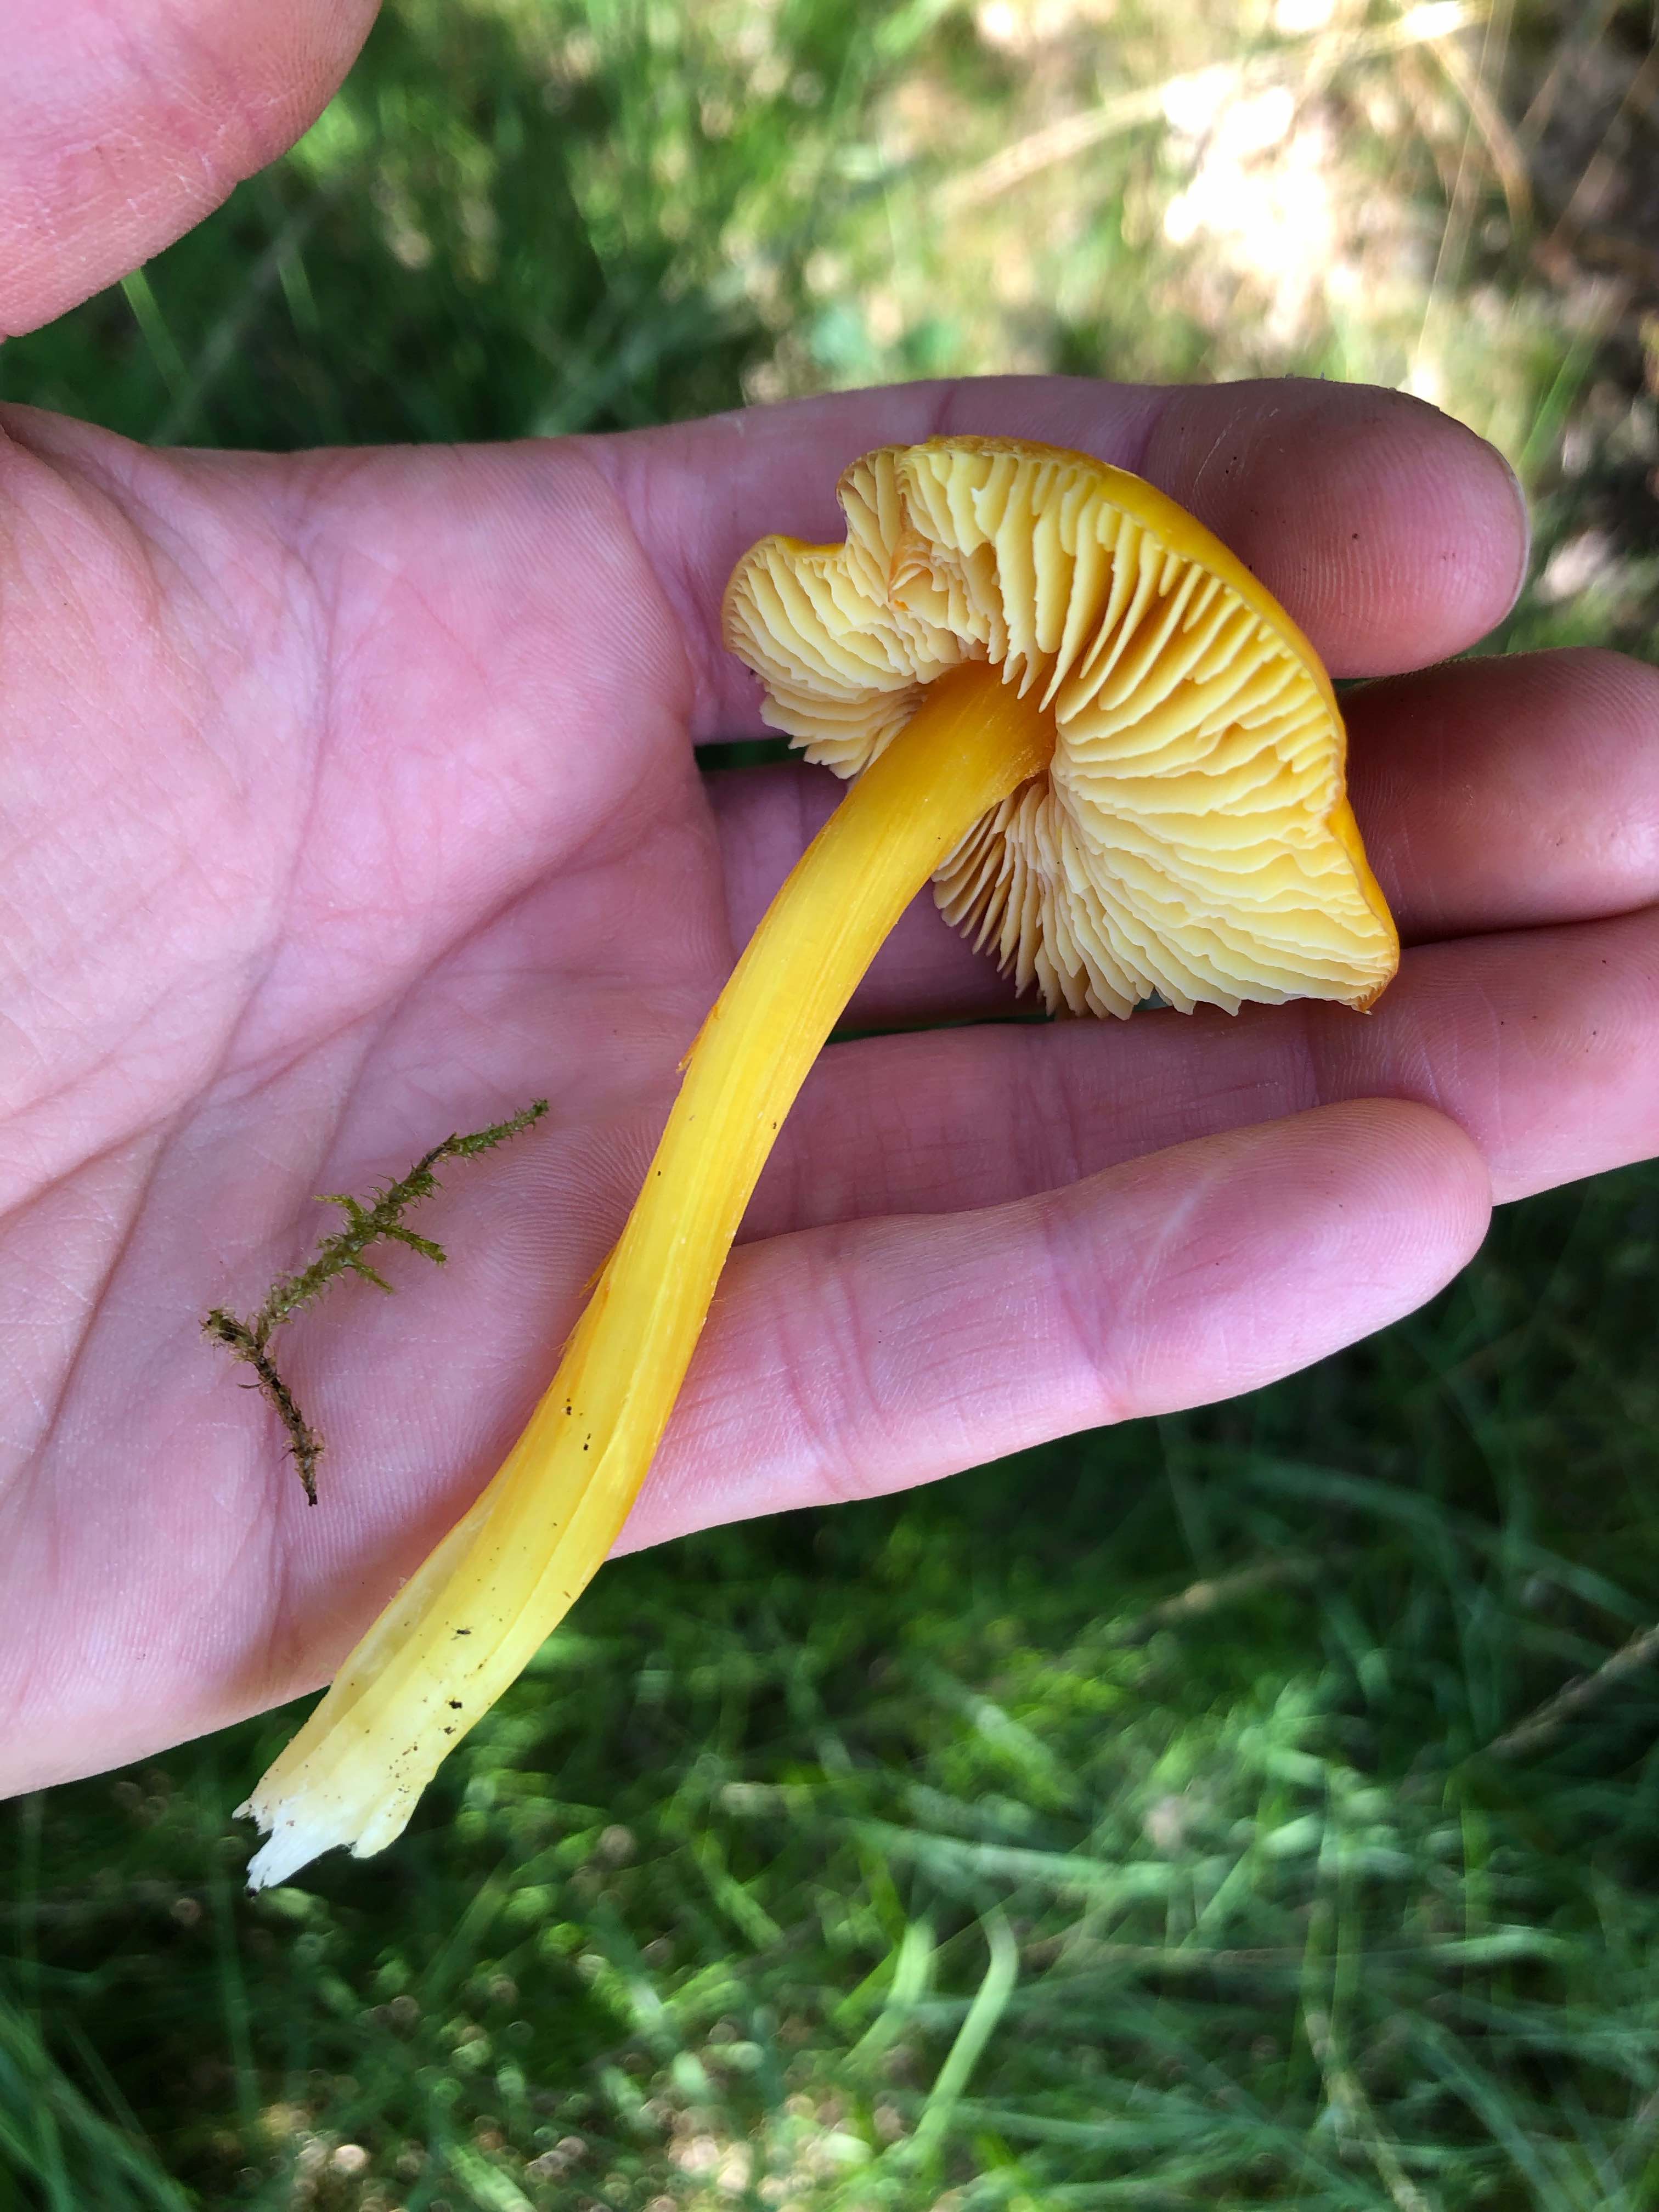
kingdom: Fungi
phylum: Basidiomycota
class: Agaricomycetes
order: Agaricales
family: Hygrophoraceae
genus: Hygrocybe
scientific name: Hygrocybe
